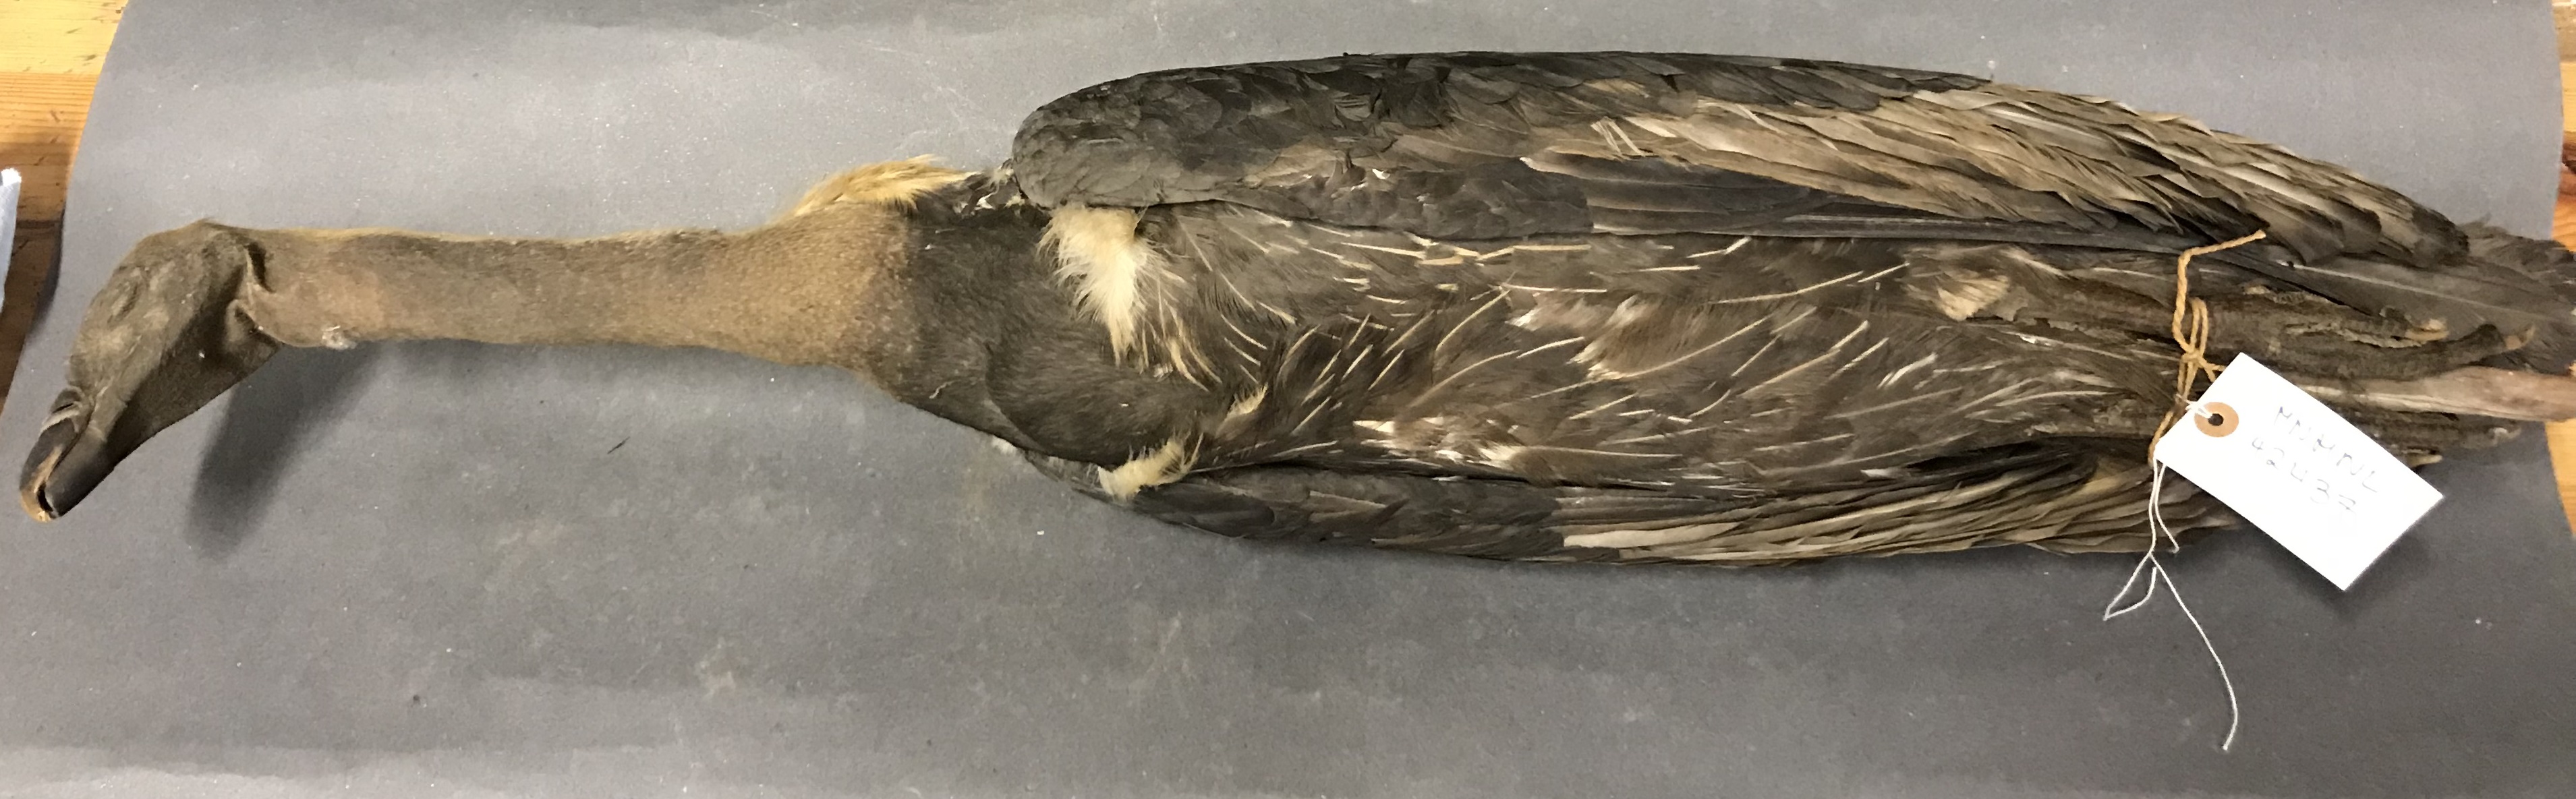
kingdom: Animalia
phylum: Chordata
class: Aves
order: Accipitriformes
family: Accipitridae
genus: Gyps
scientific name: Gyps fulvus
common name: Griffon vulture
